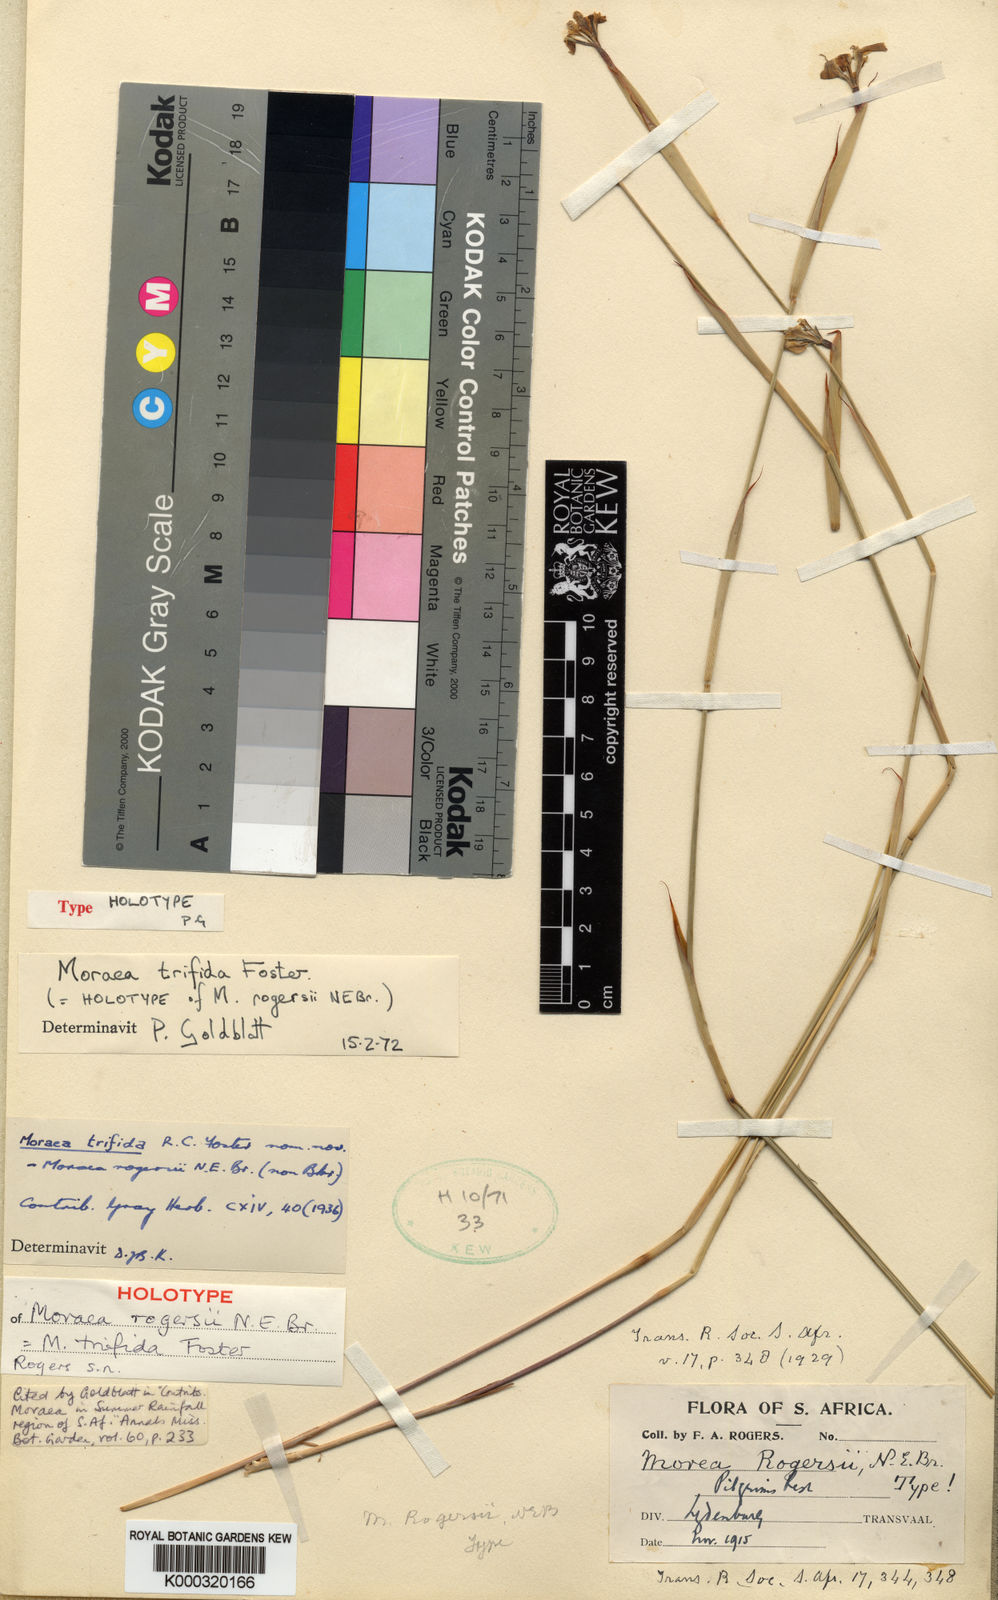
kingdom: Plantae
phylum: Tracheophyta
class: Liliopsida
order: Asparagales
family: Iridaceae
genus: Moraea
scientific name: Moraea trifida
